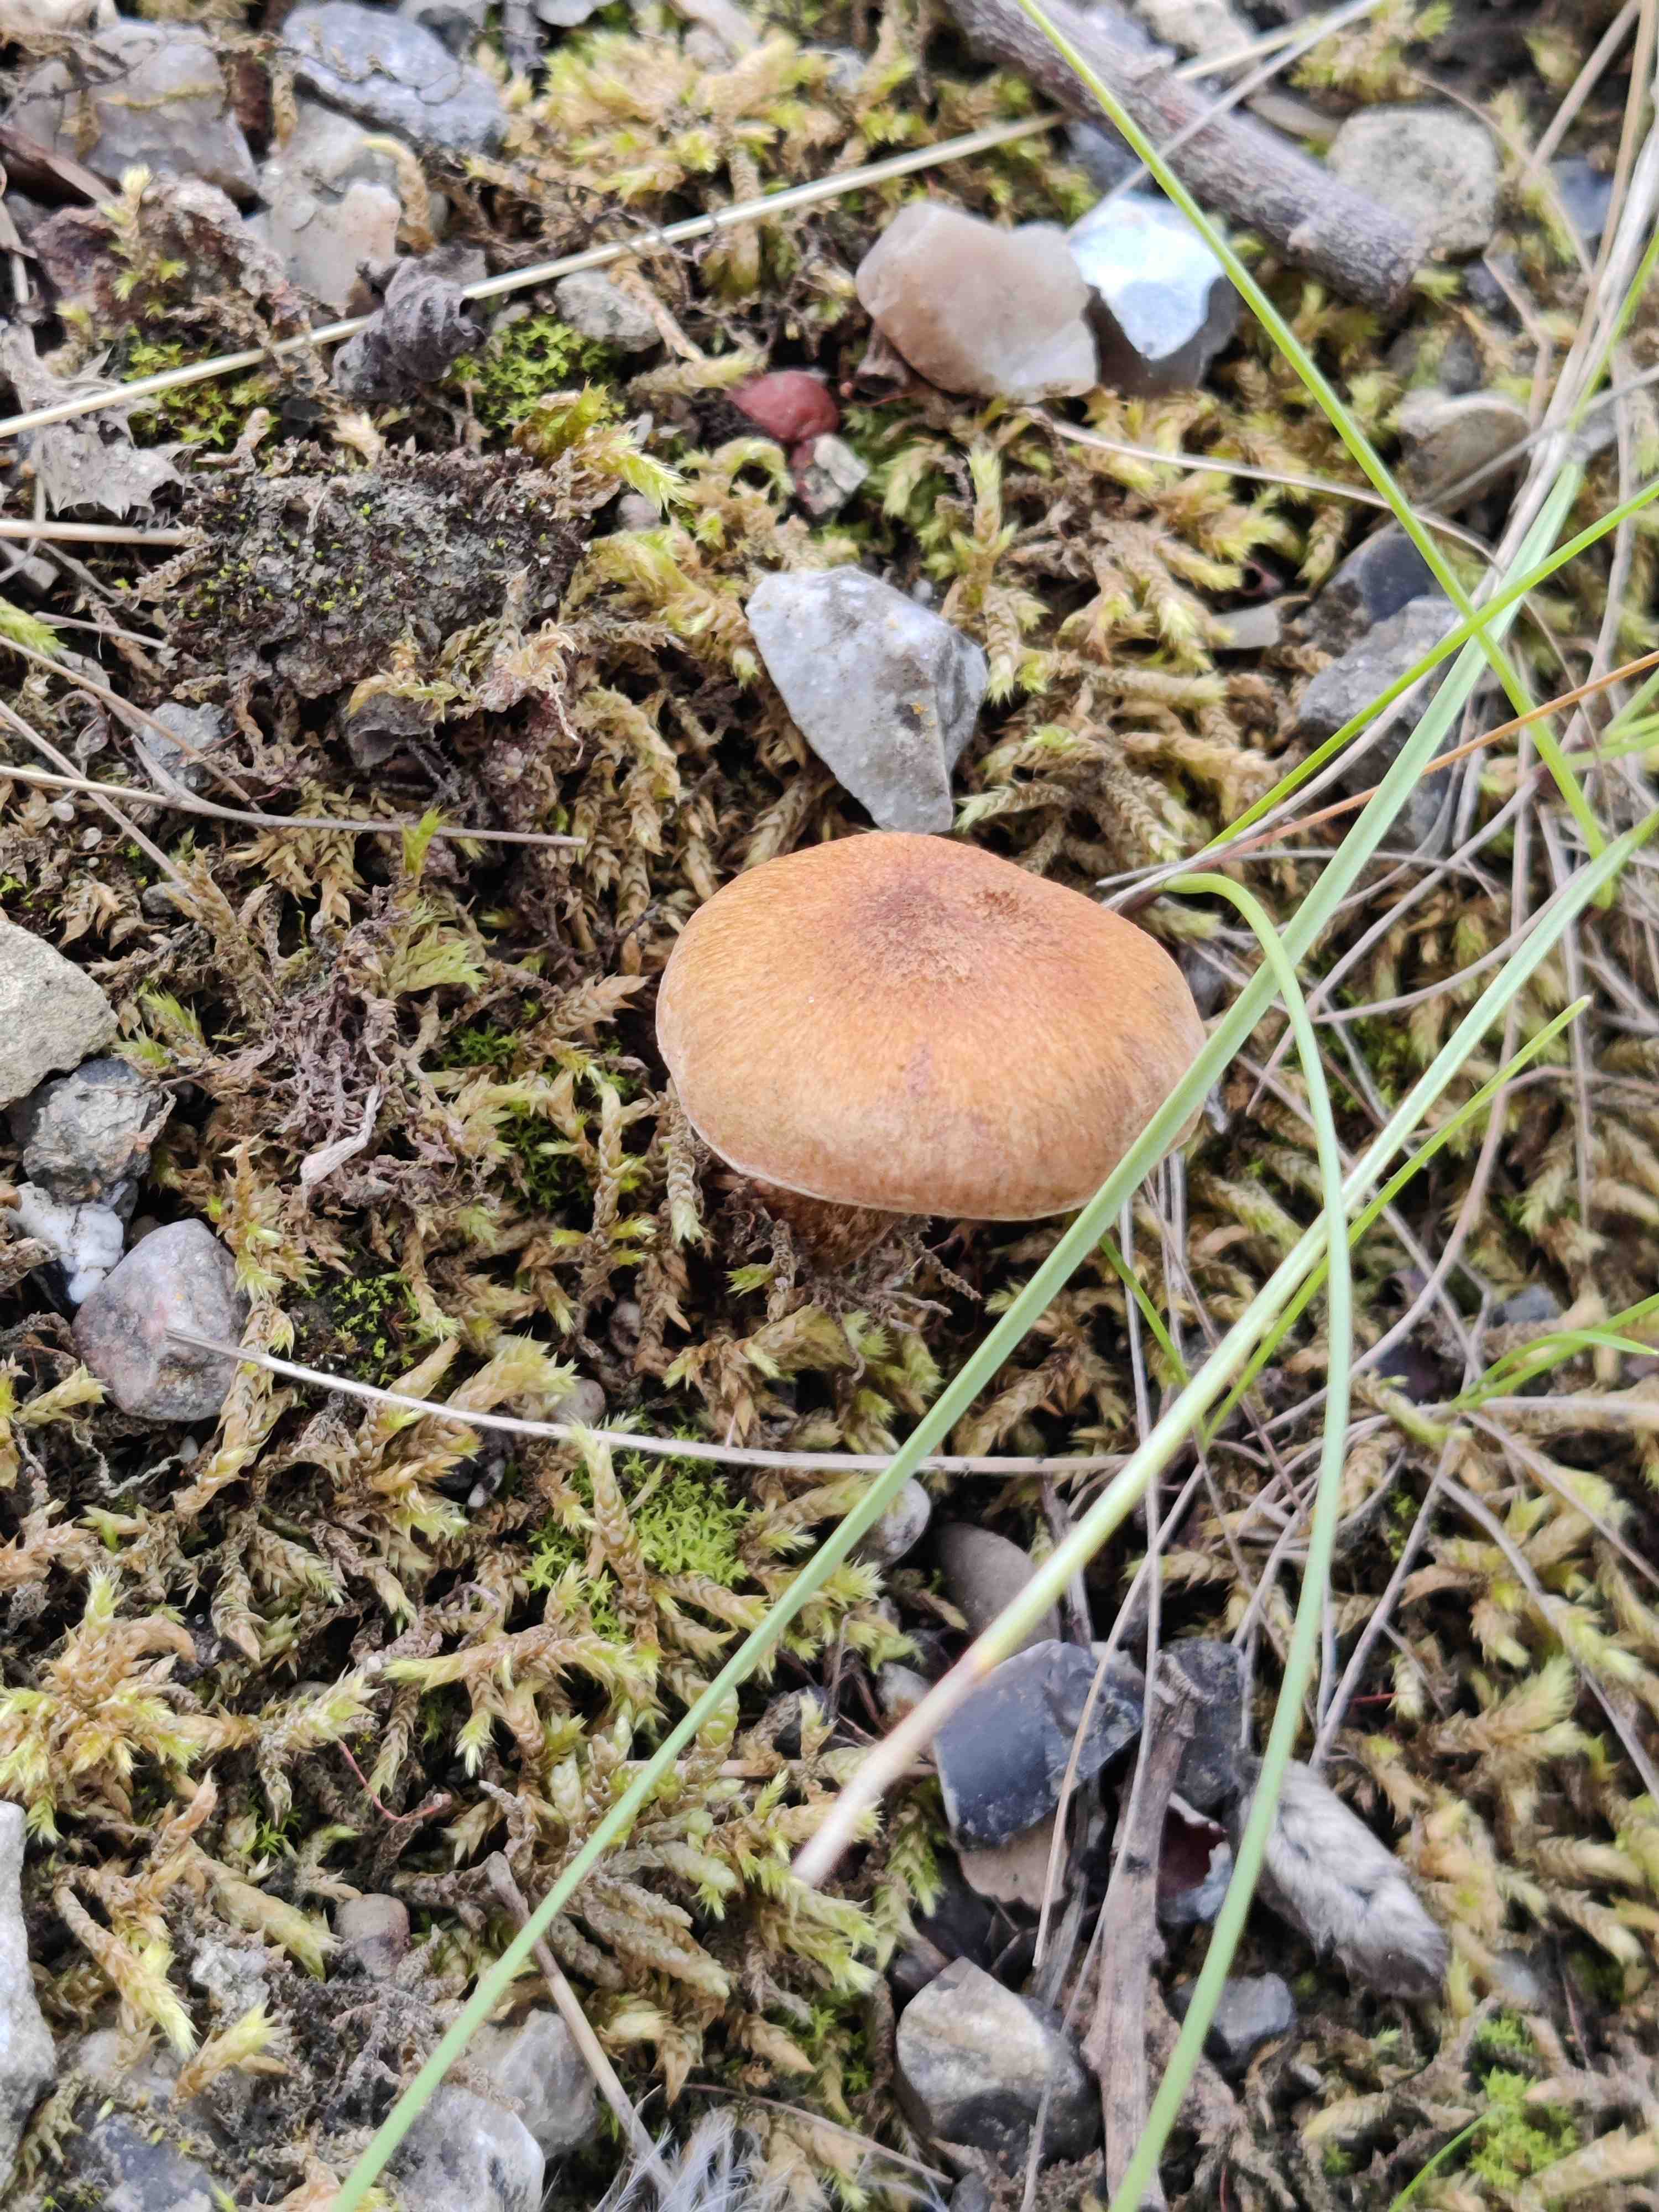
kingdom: Fungi
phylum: Basidiomycota
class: Agaricomycetes
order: Agaricales
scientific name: Agaricales
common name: champignonordenen
